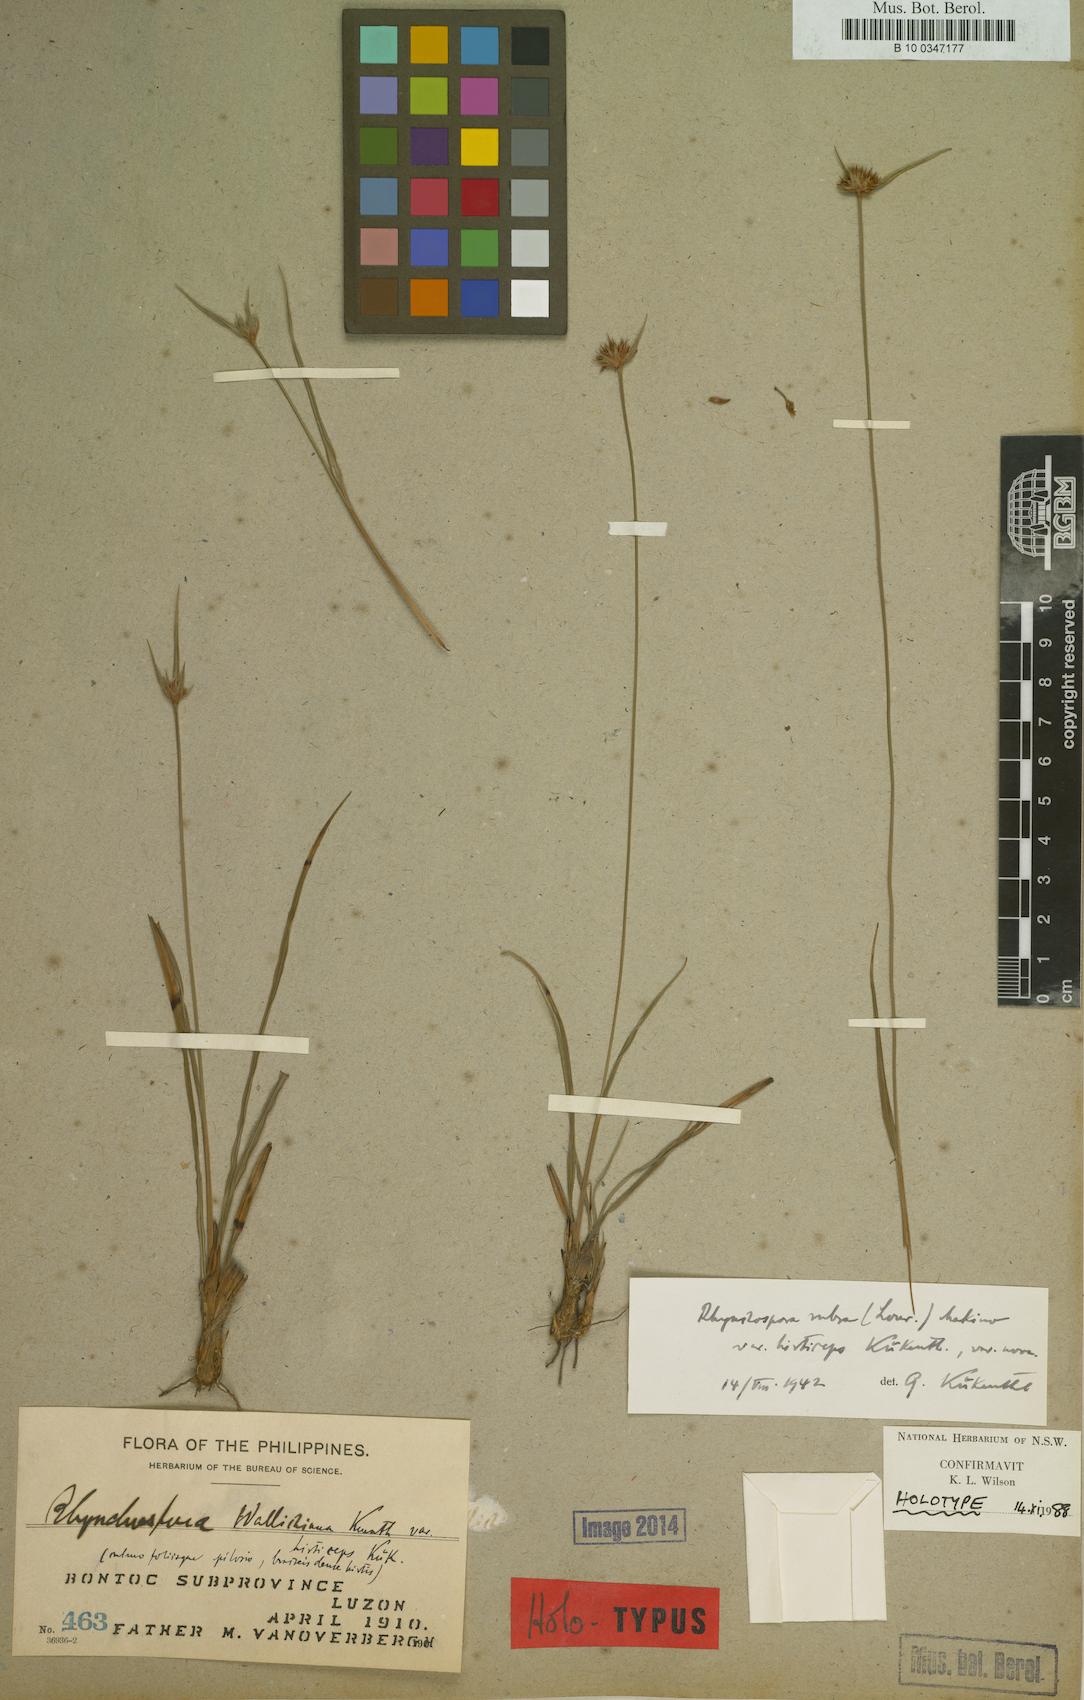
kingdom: Plantae
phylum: Tracheophyta
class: Liliopsida
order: Poales
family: Cyperaceae
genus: Rhynchospora
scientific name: Rhynchospora terminalis
